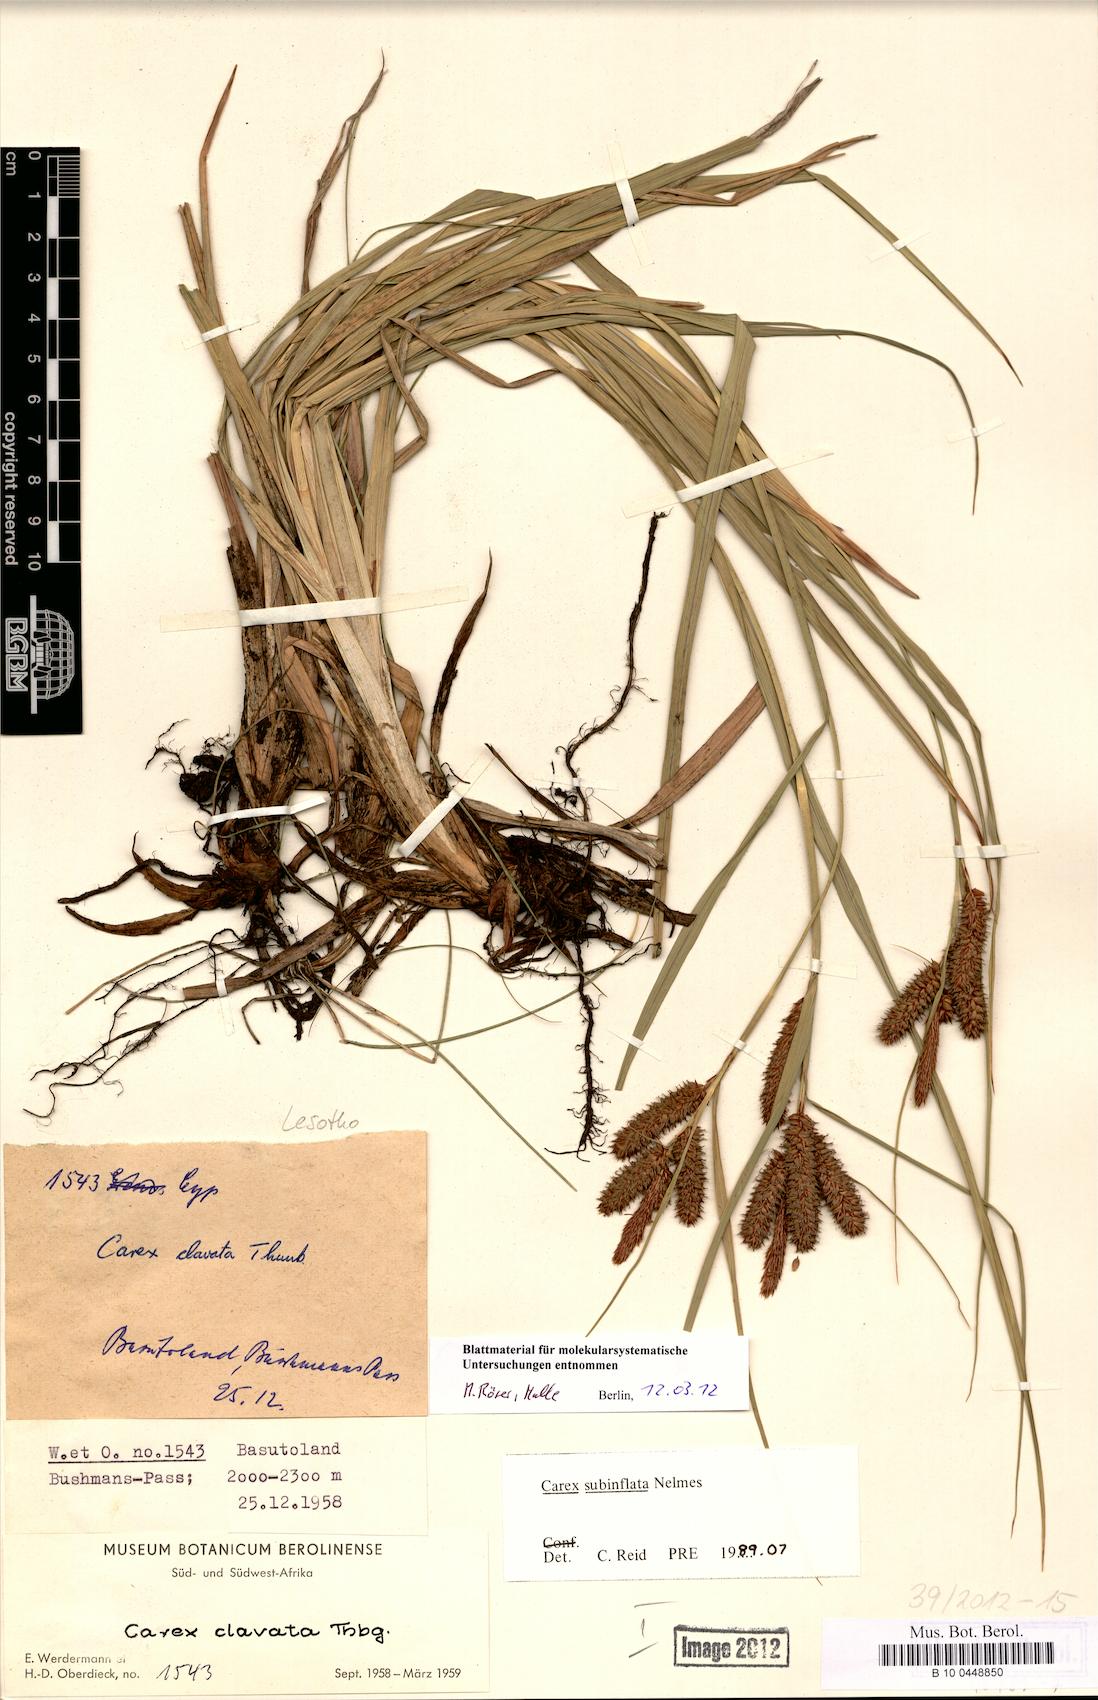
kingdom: Plantae
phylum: Tracheophyta
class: Liliopsida
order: Poales
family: Cyperaceae
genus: Carex
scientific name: Carex clavata
